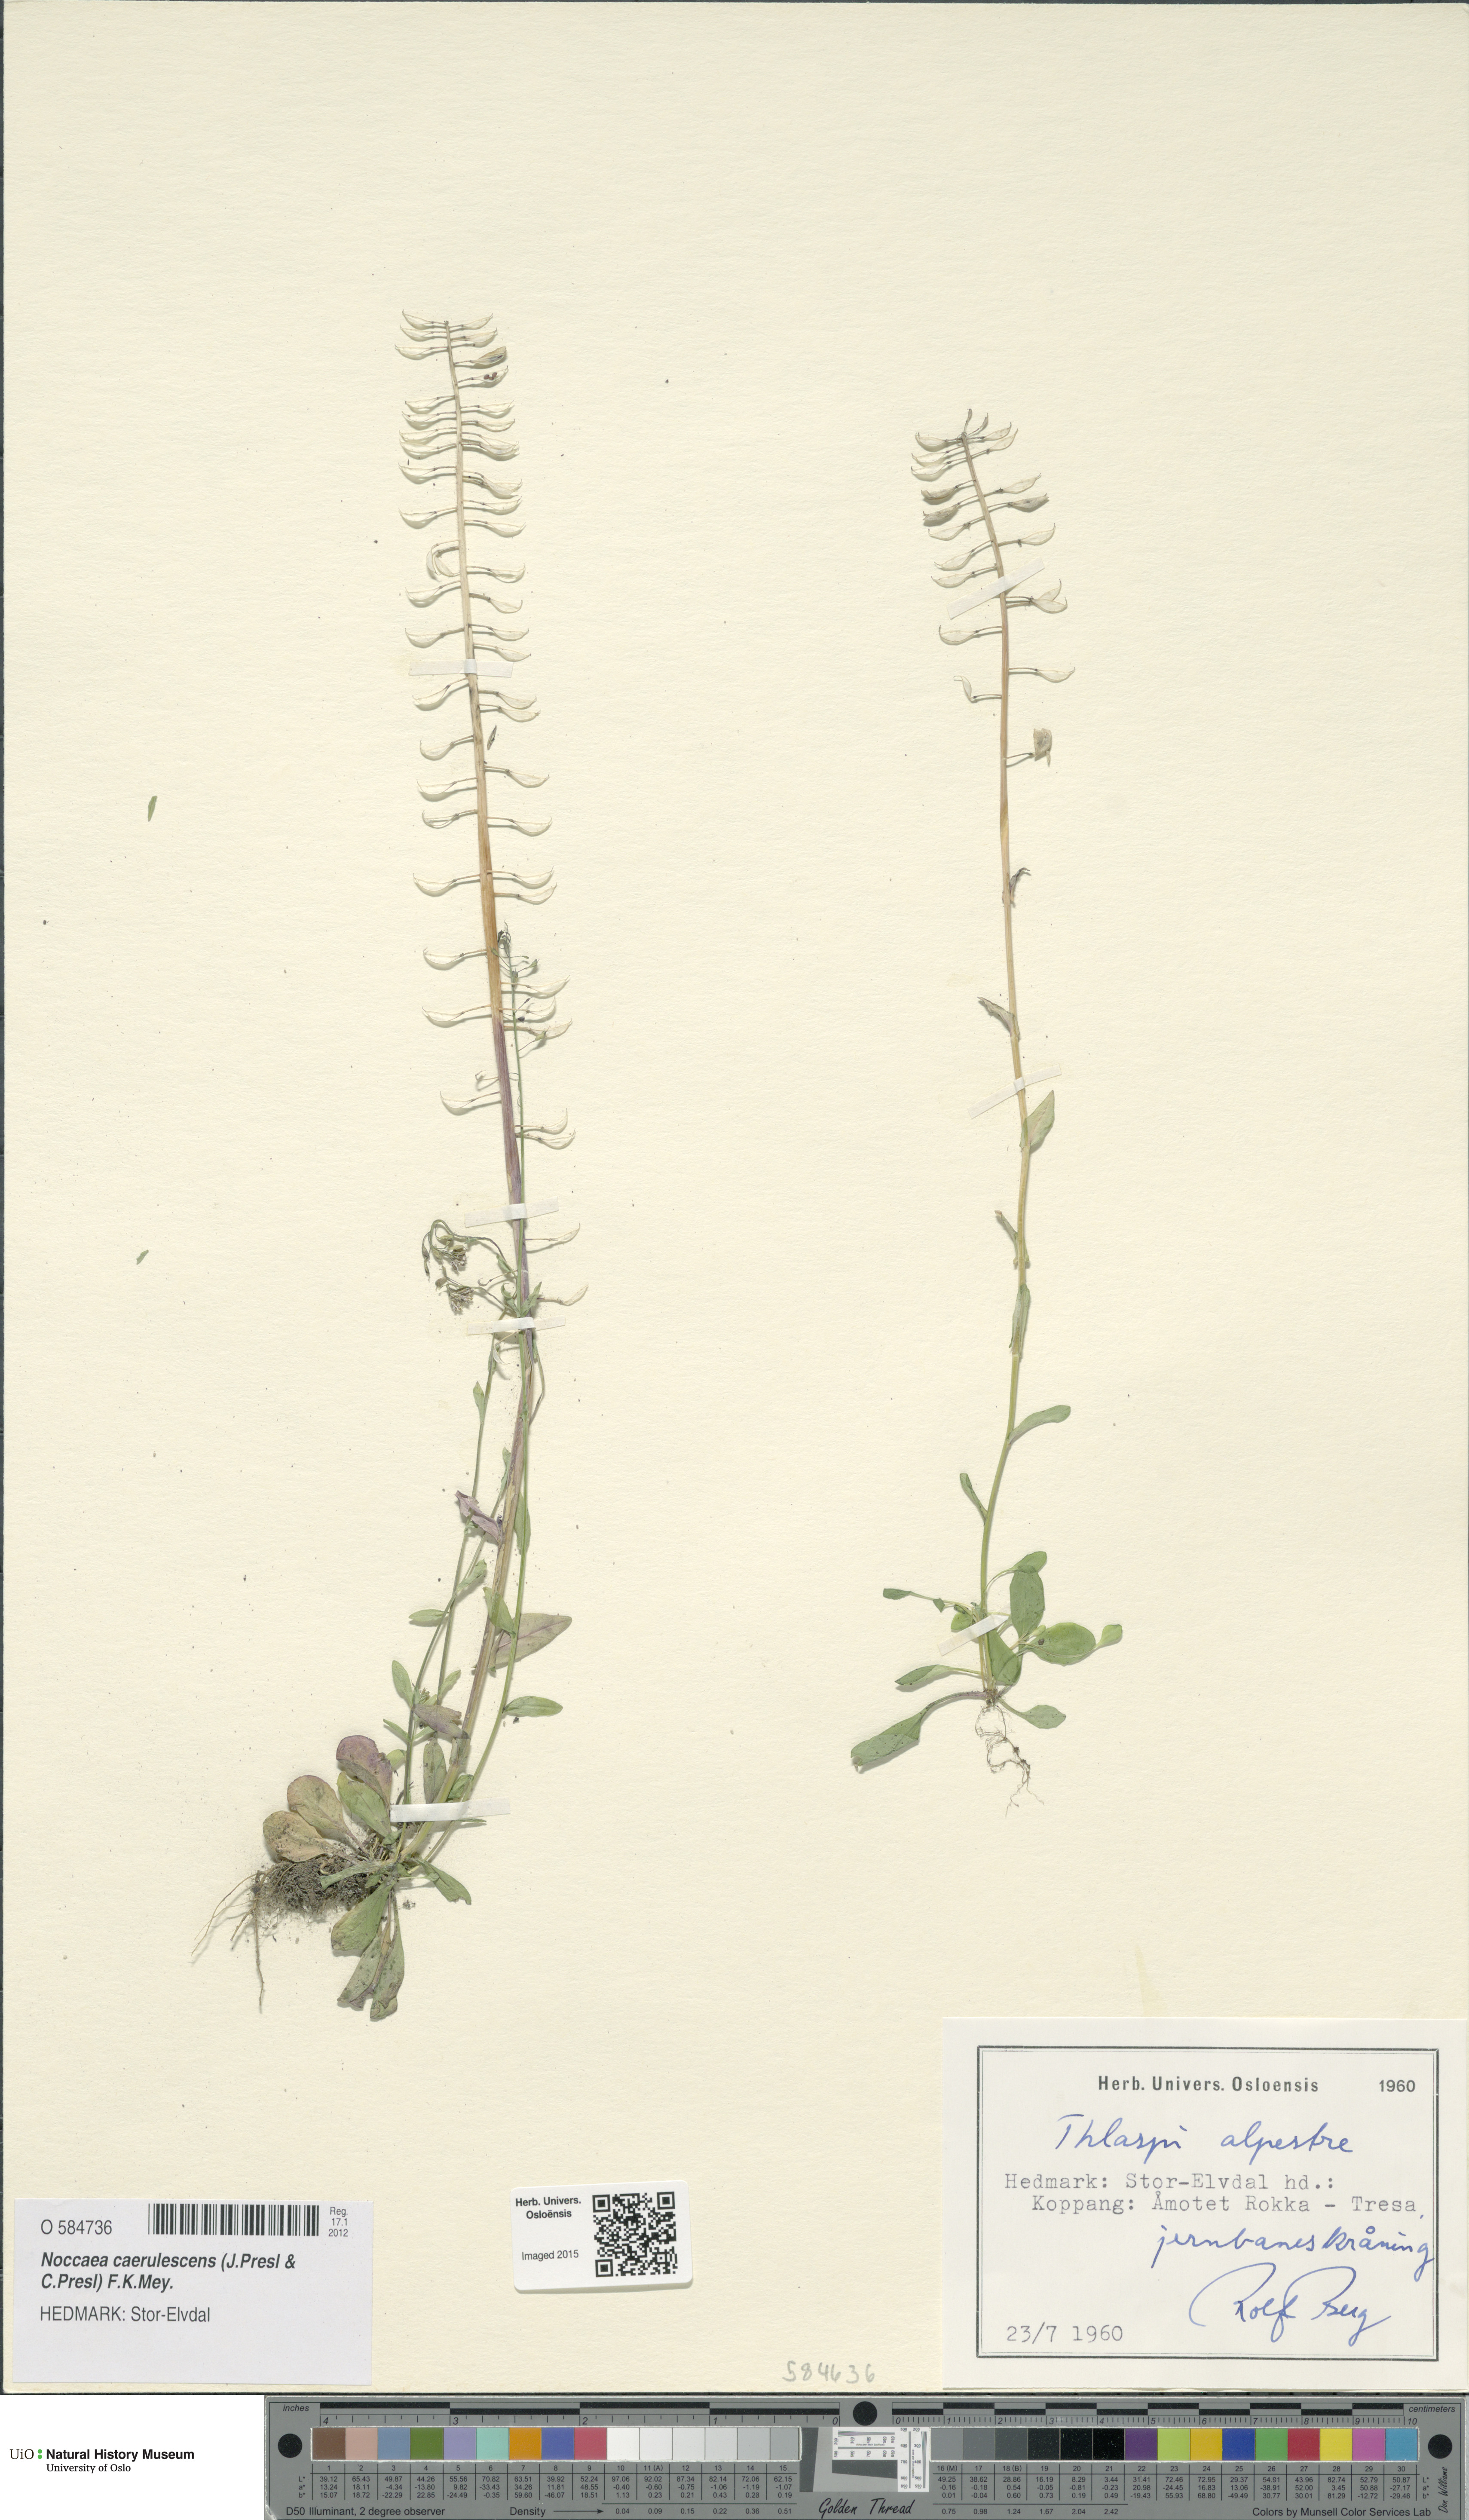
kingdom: Plantae
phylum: Tracheophyta
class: Magnoliopsida
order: Brassicales
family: Brassicaceae
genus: Noccaea
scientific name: Noccaea caerulescens
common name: Alpine pennycress
